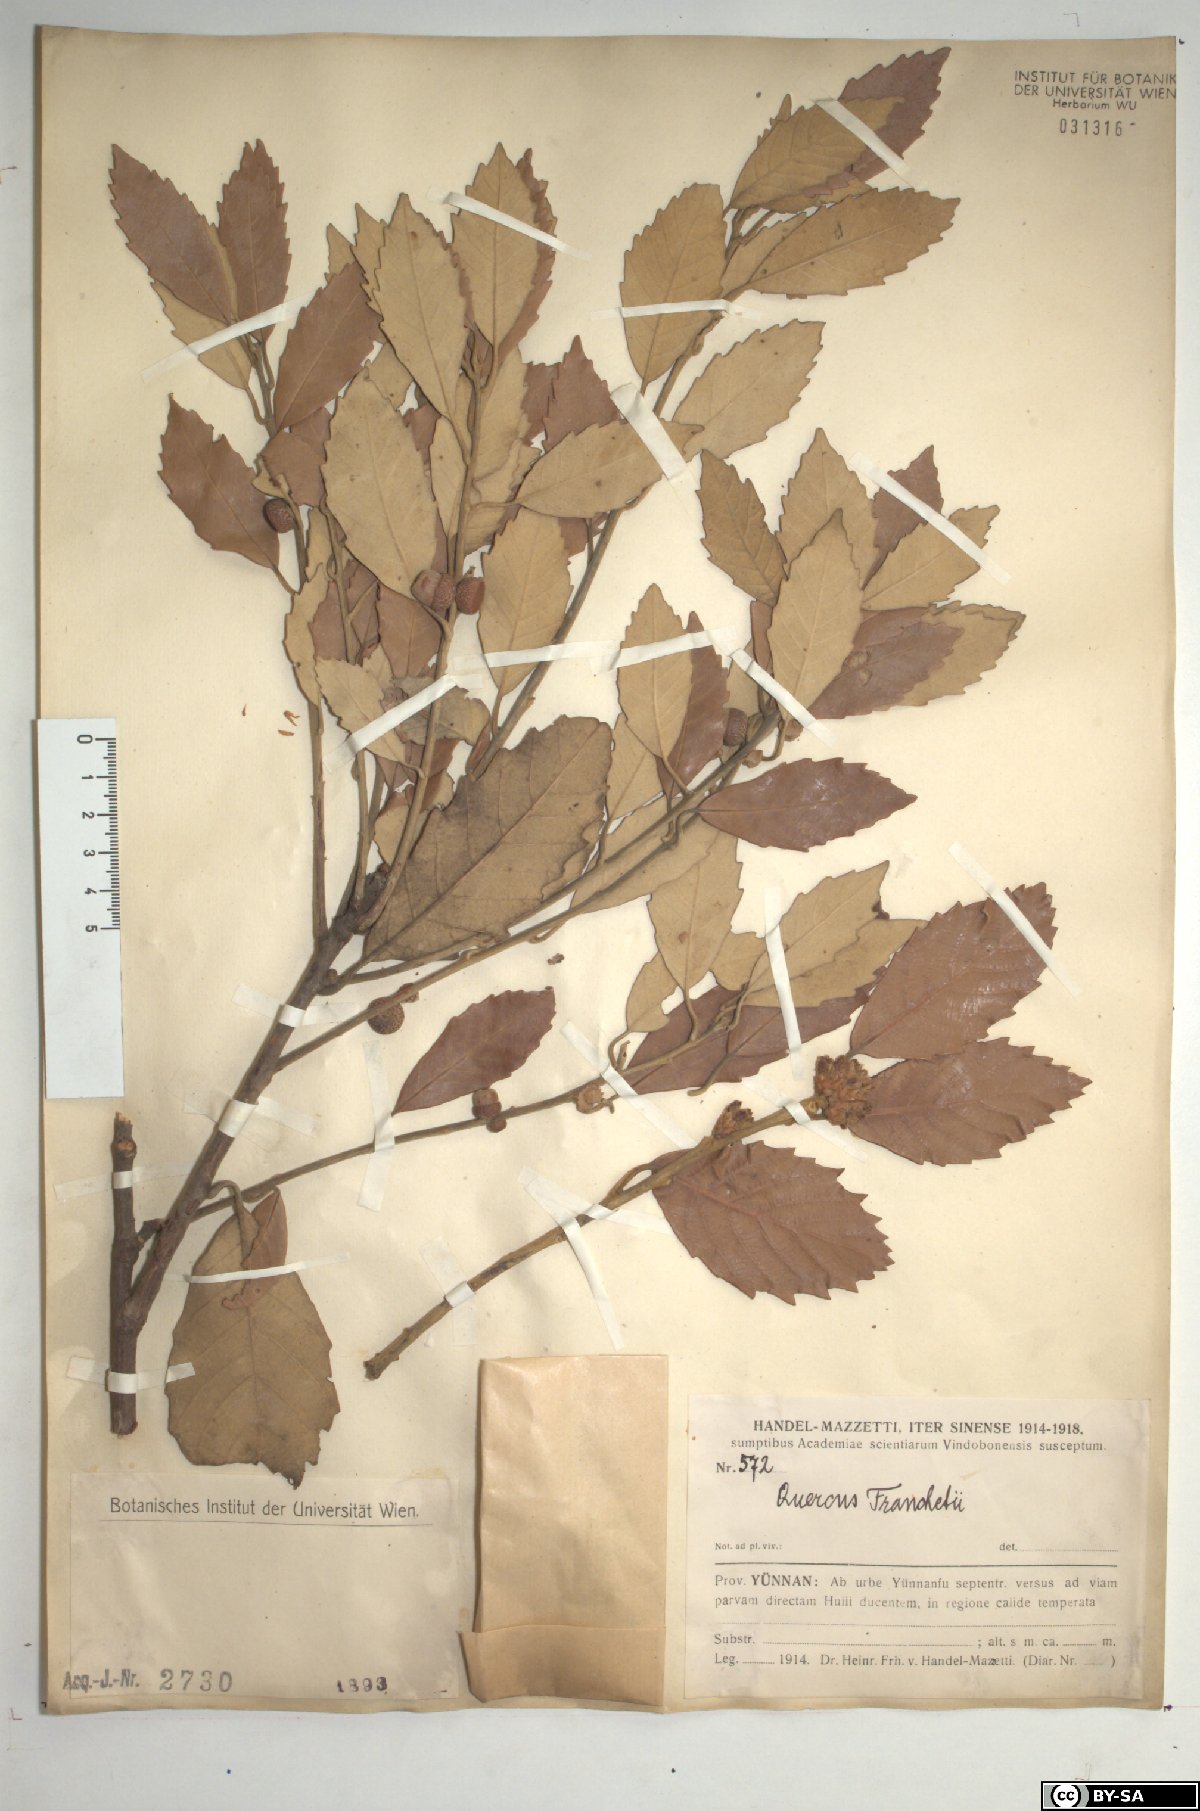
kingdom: Plantae
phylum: Tracheophyta
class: Magnoliopsida
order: Fagales
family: Fagaceae
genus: Quercus
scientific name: Quercus franchetii
